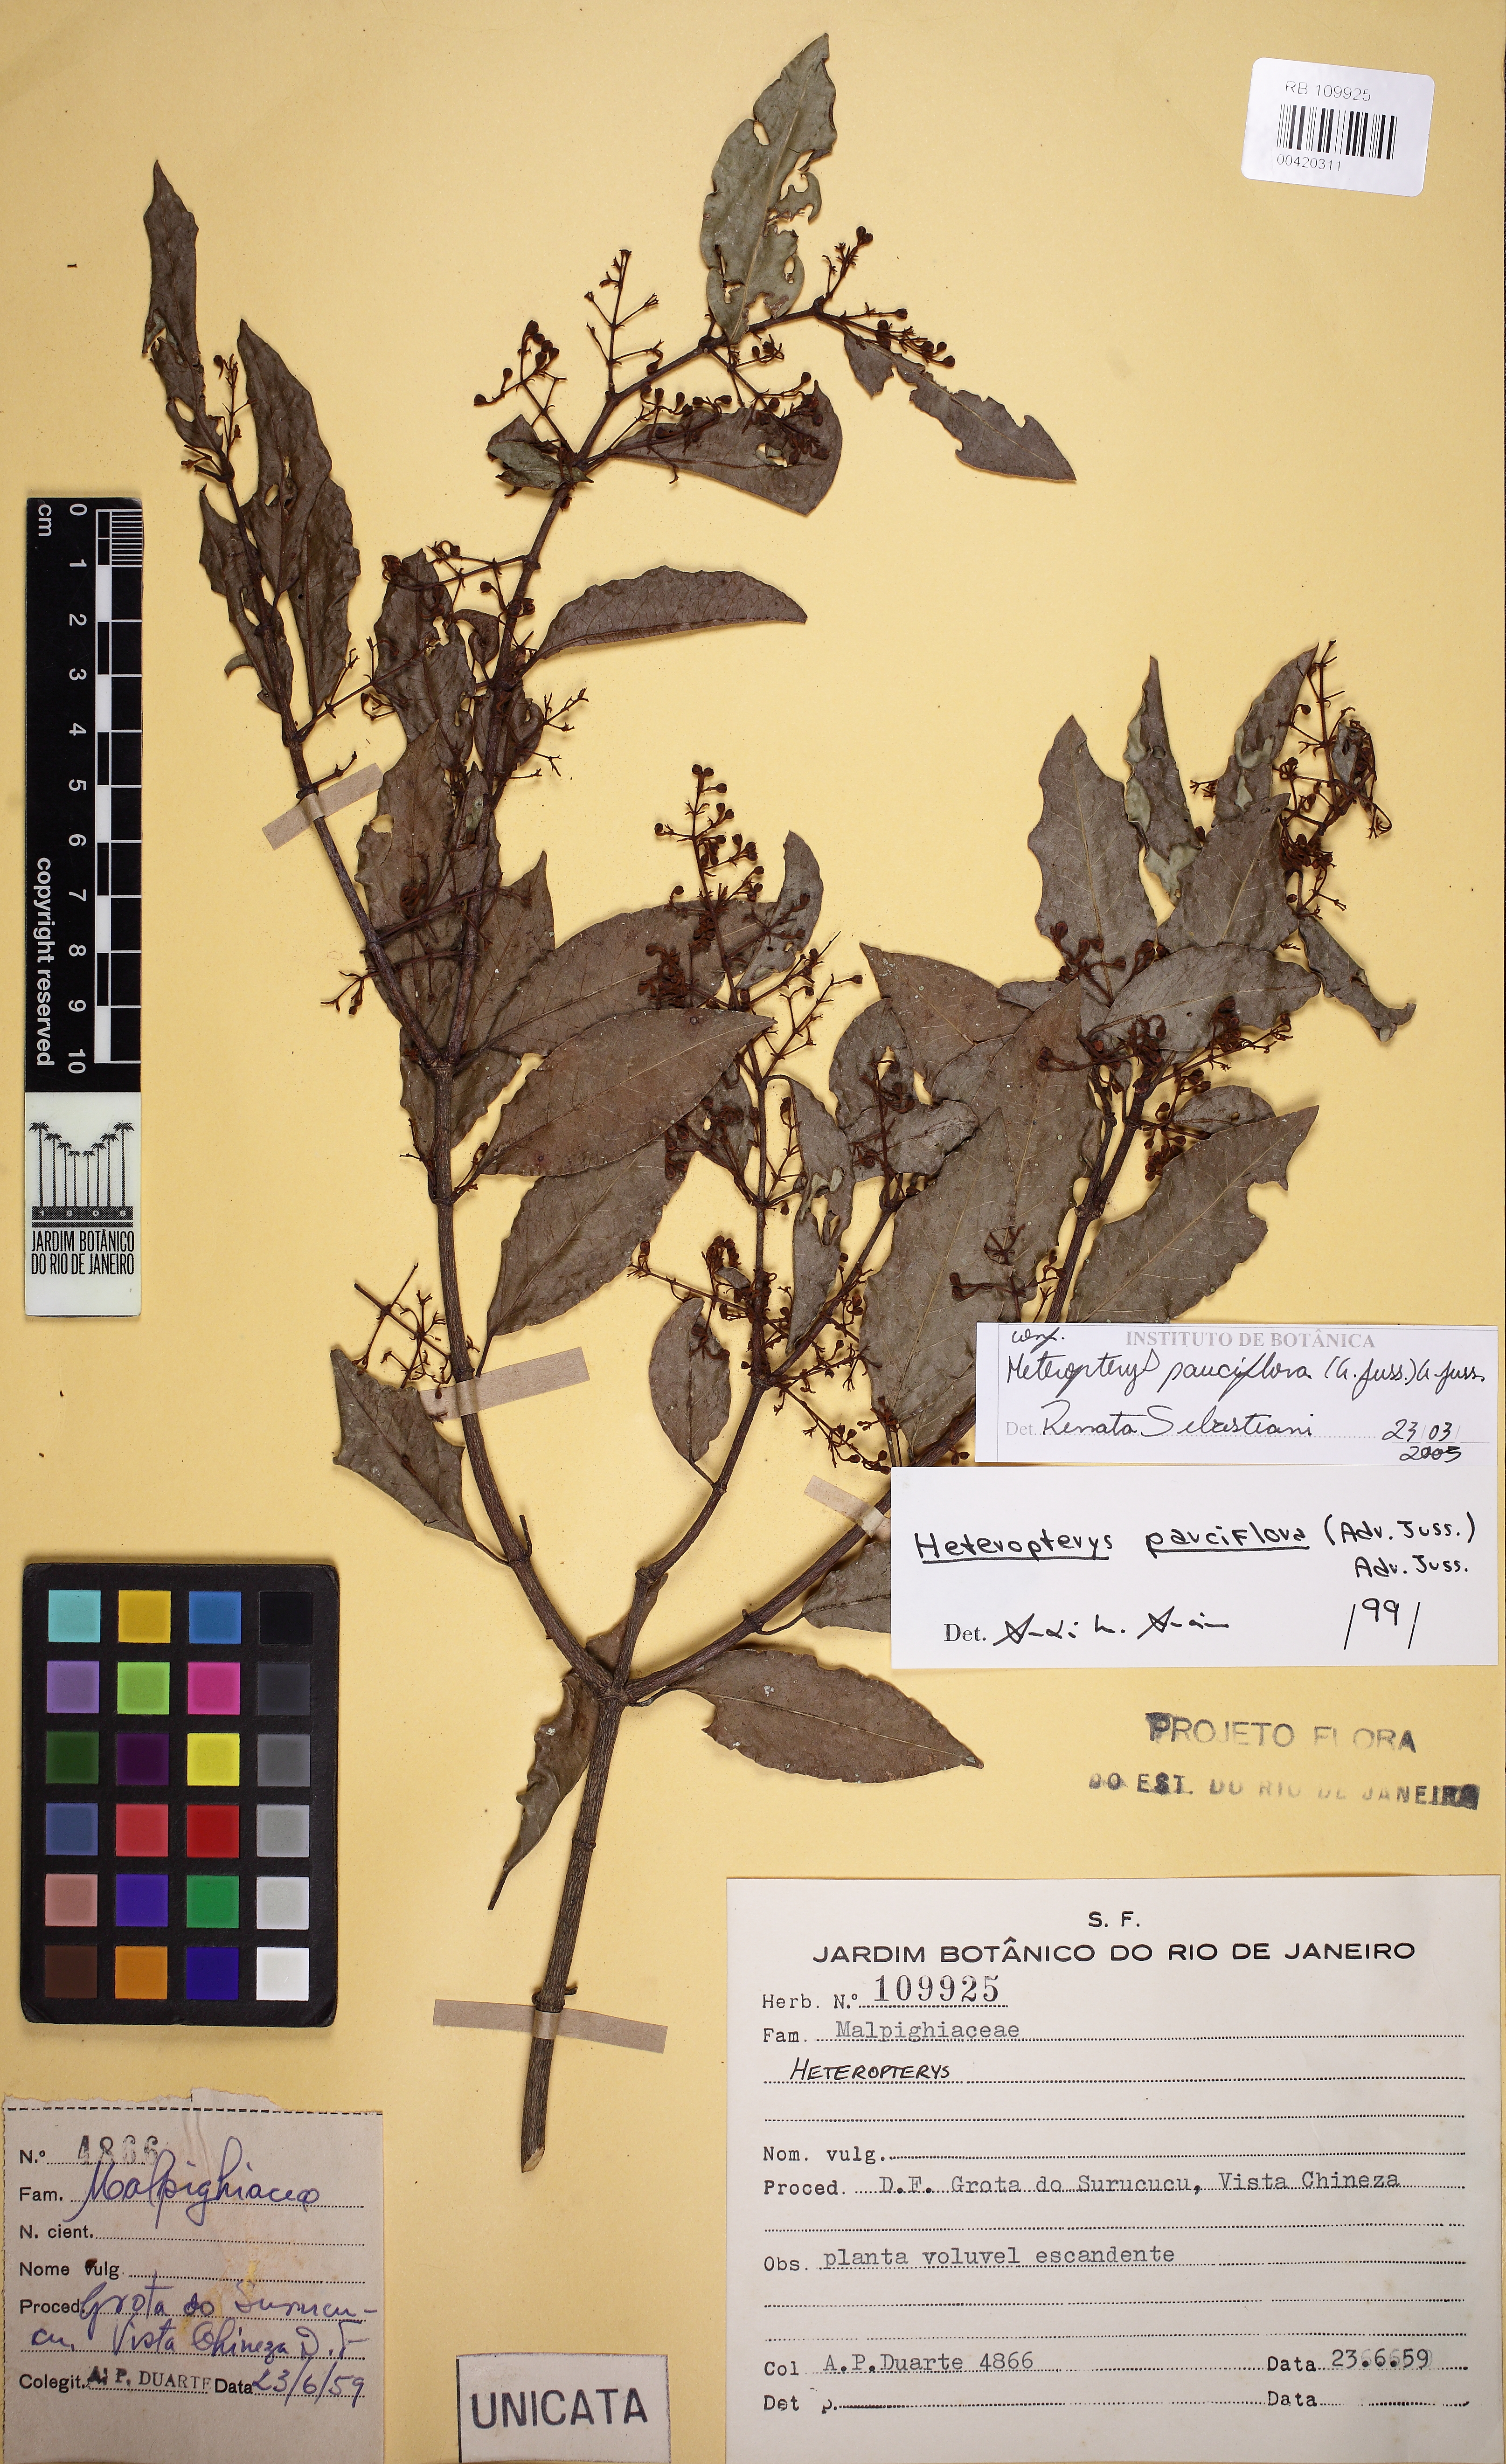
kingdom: Plantae
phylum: Tracheophyta
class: Magnoliopsida
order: Malpighiales
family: Malpighiaceae
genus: Heteropterys
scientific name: Heteropterys pauciflora
